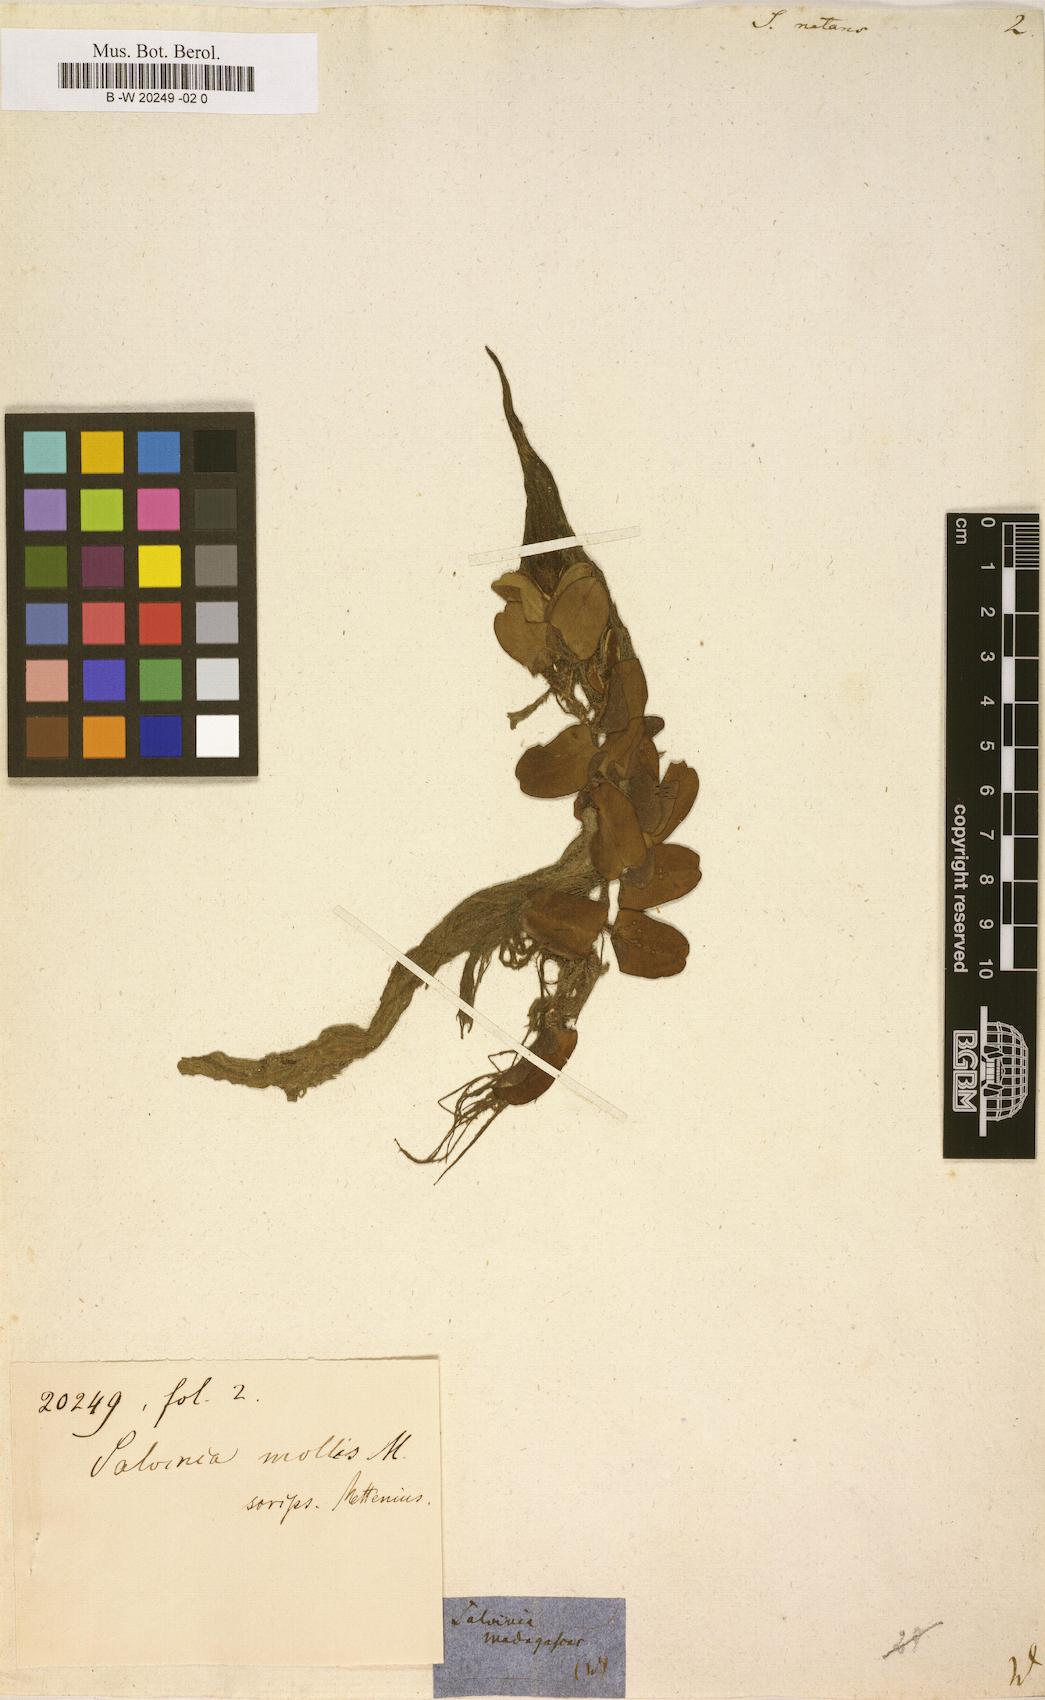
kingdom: Plantae
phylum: Tracheophyta
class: Polypodiopsida
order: Salviniales
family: Salviniaceae
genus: Salvinia
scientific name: Salvinia natans
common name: Floating fern
